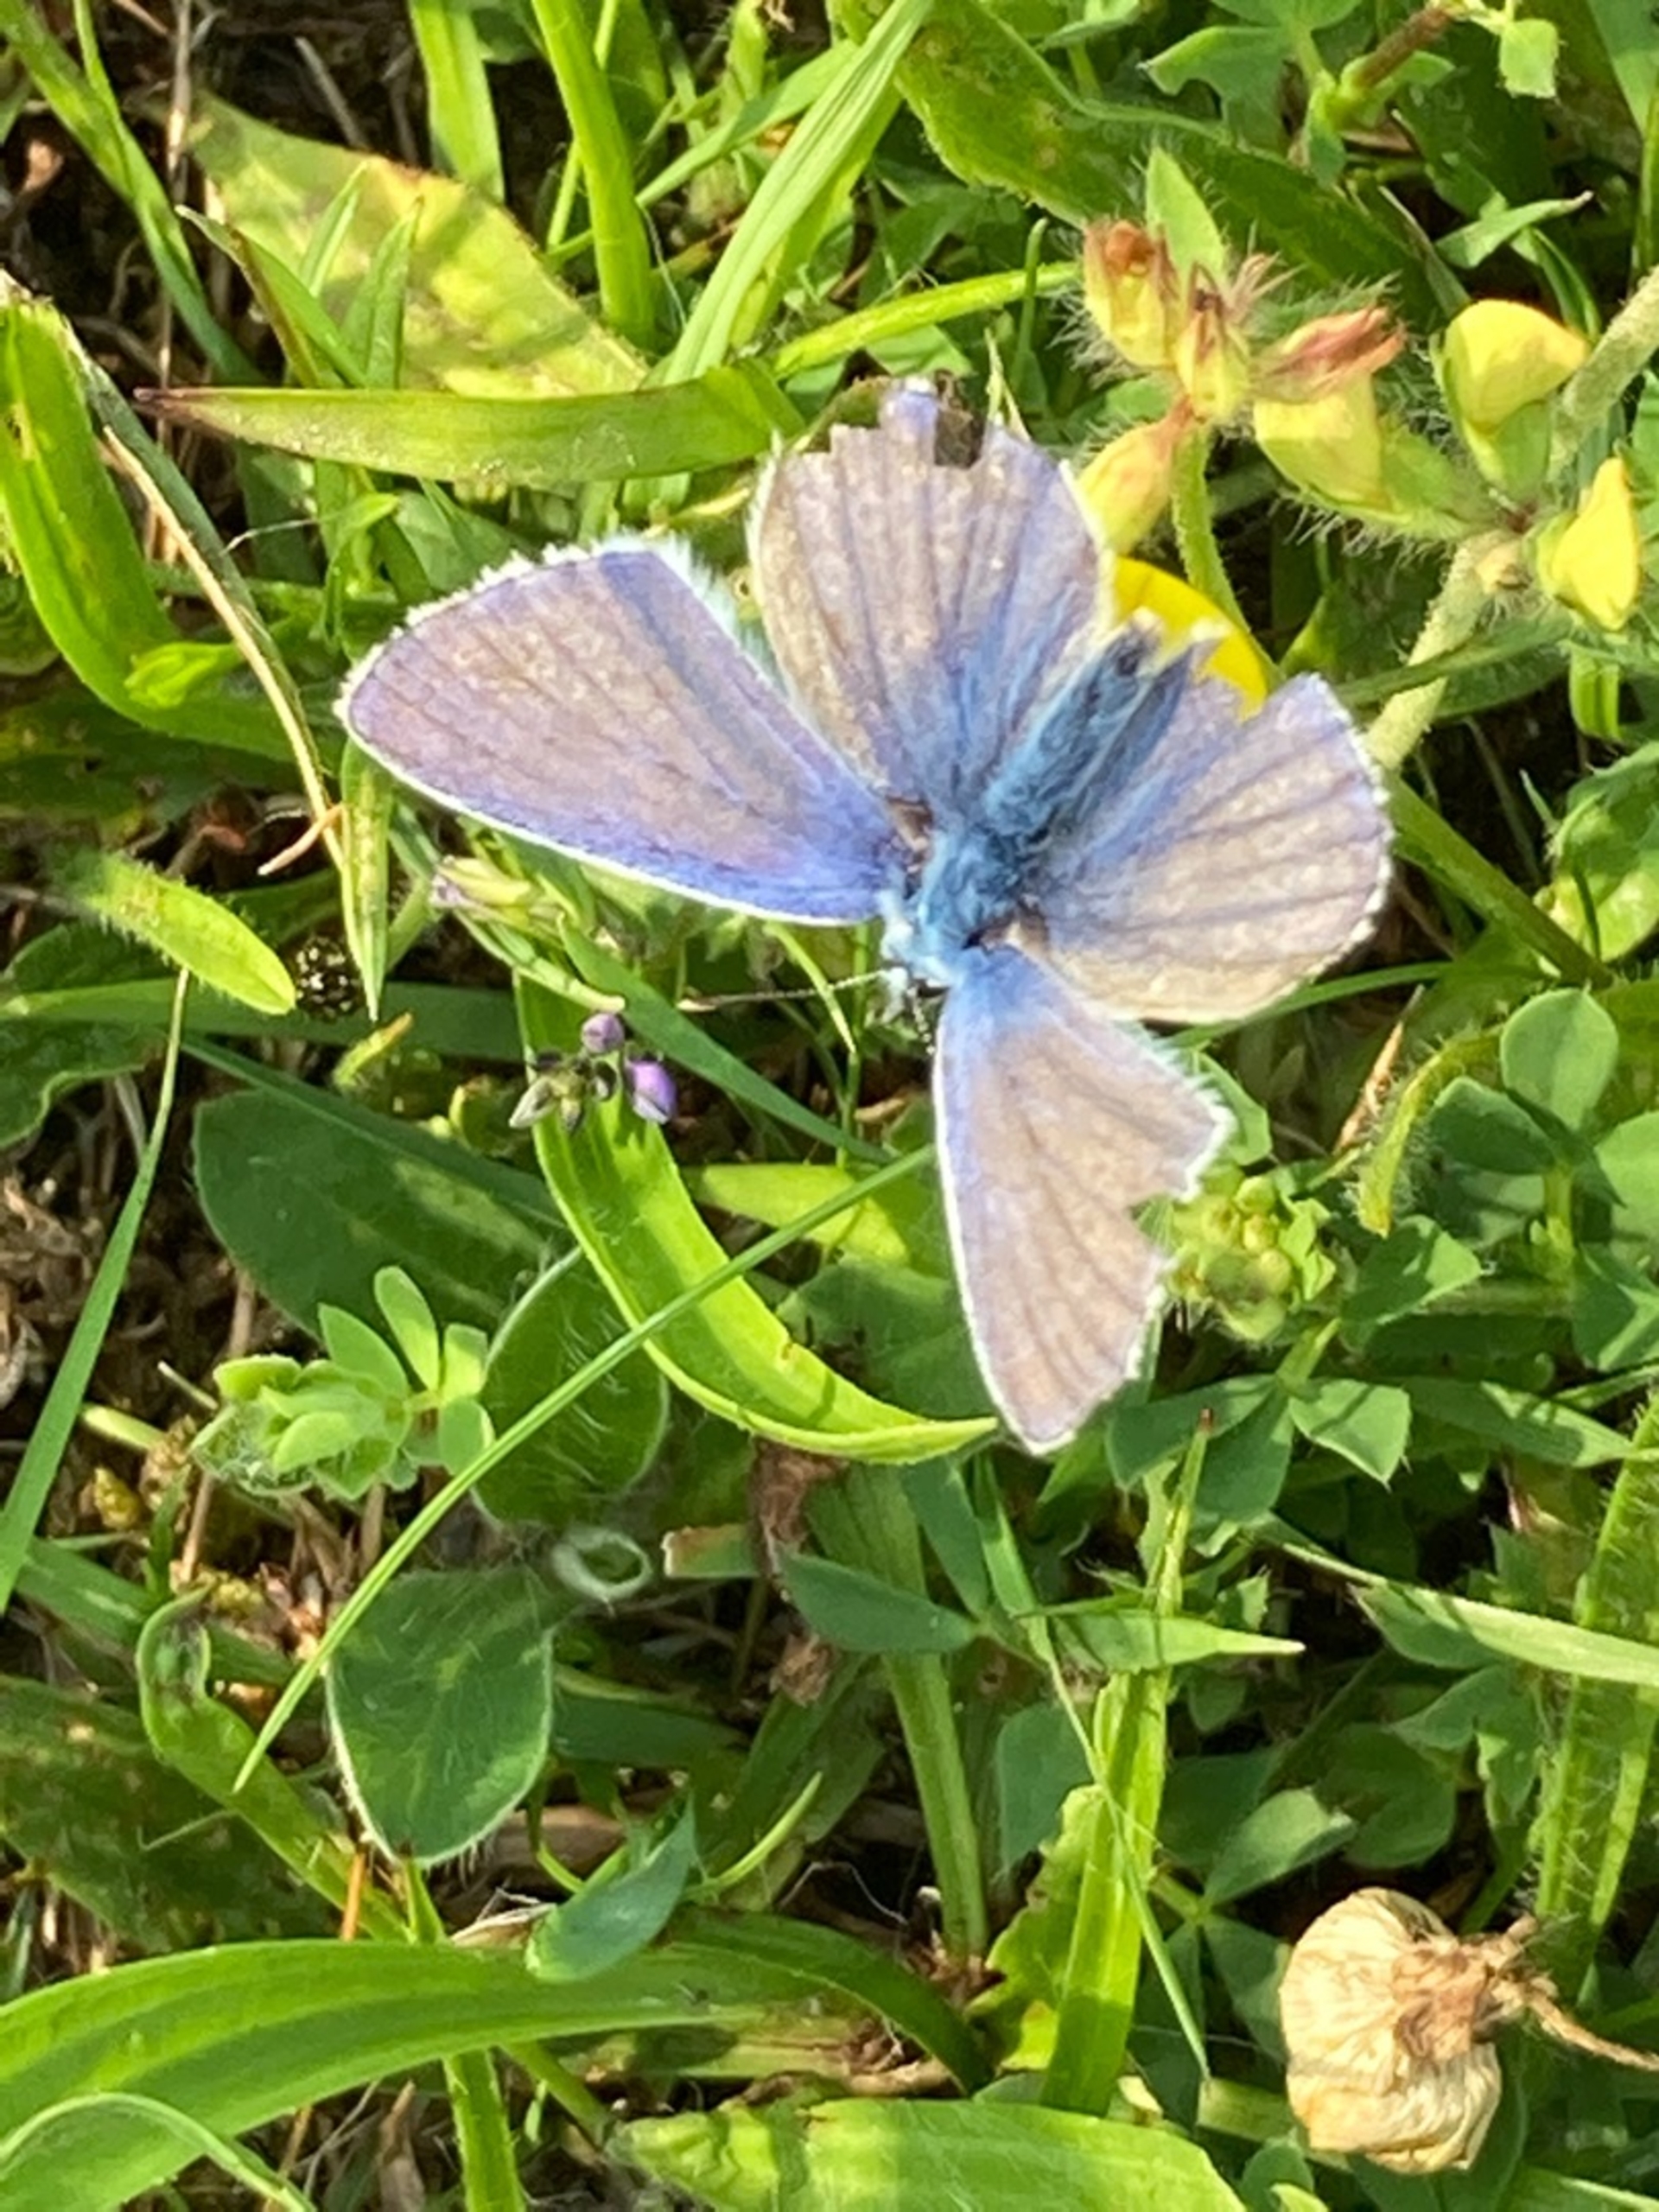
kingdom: Animalia
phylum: Arthropoda
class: Insecta
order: Lepidoptera
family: Lycaenidae
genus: Polyommatus
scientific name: Polyommatus icarus
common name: Almindelig blåfugl
